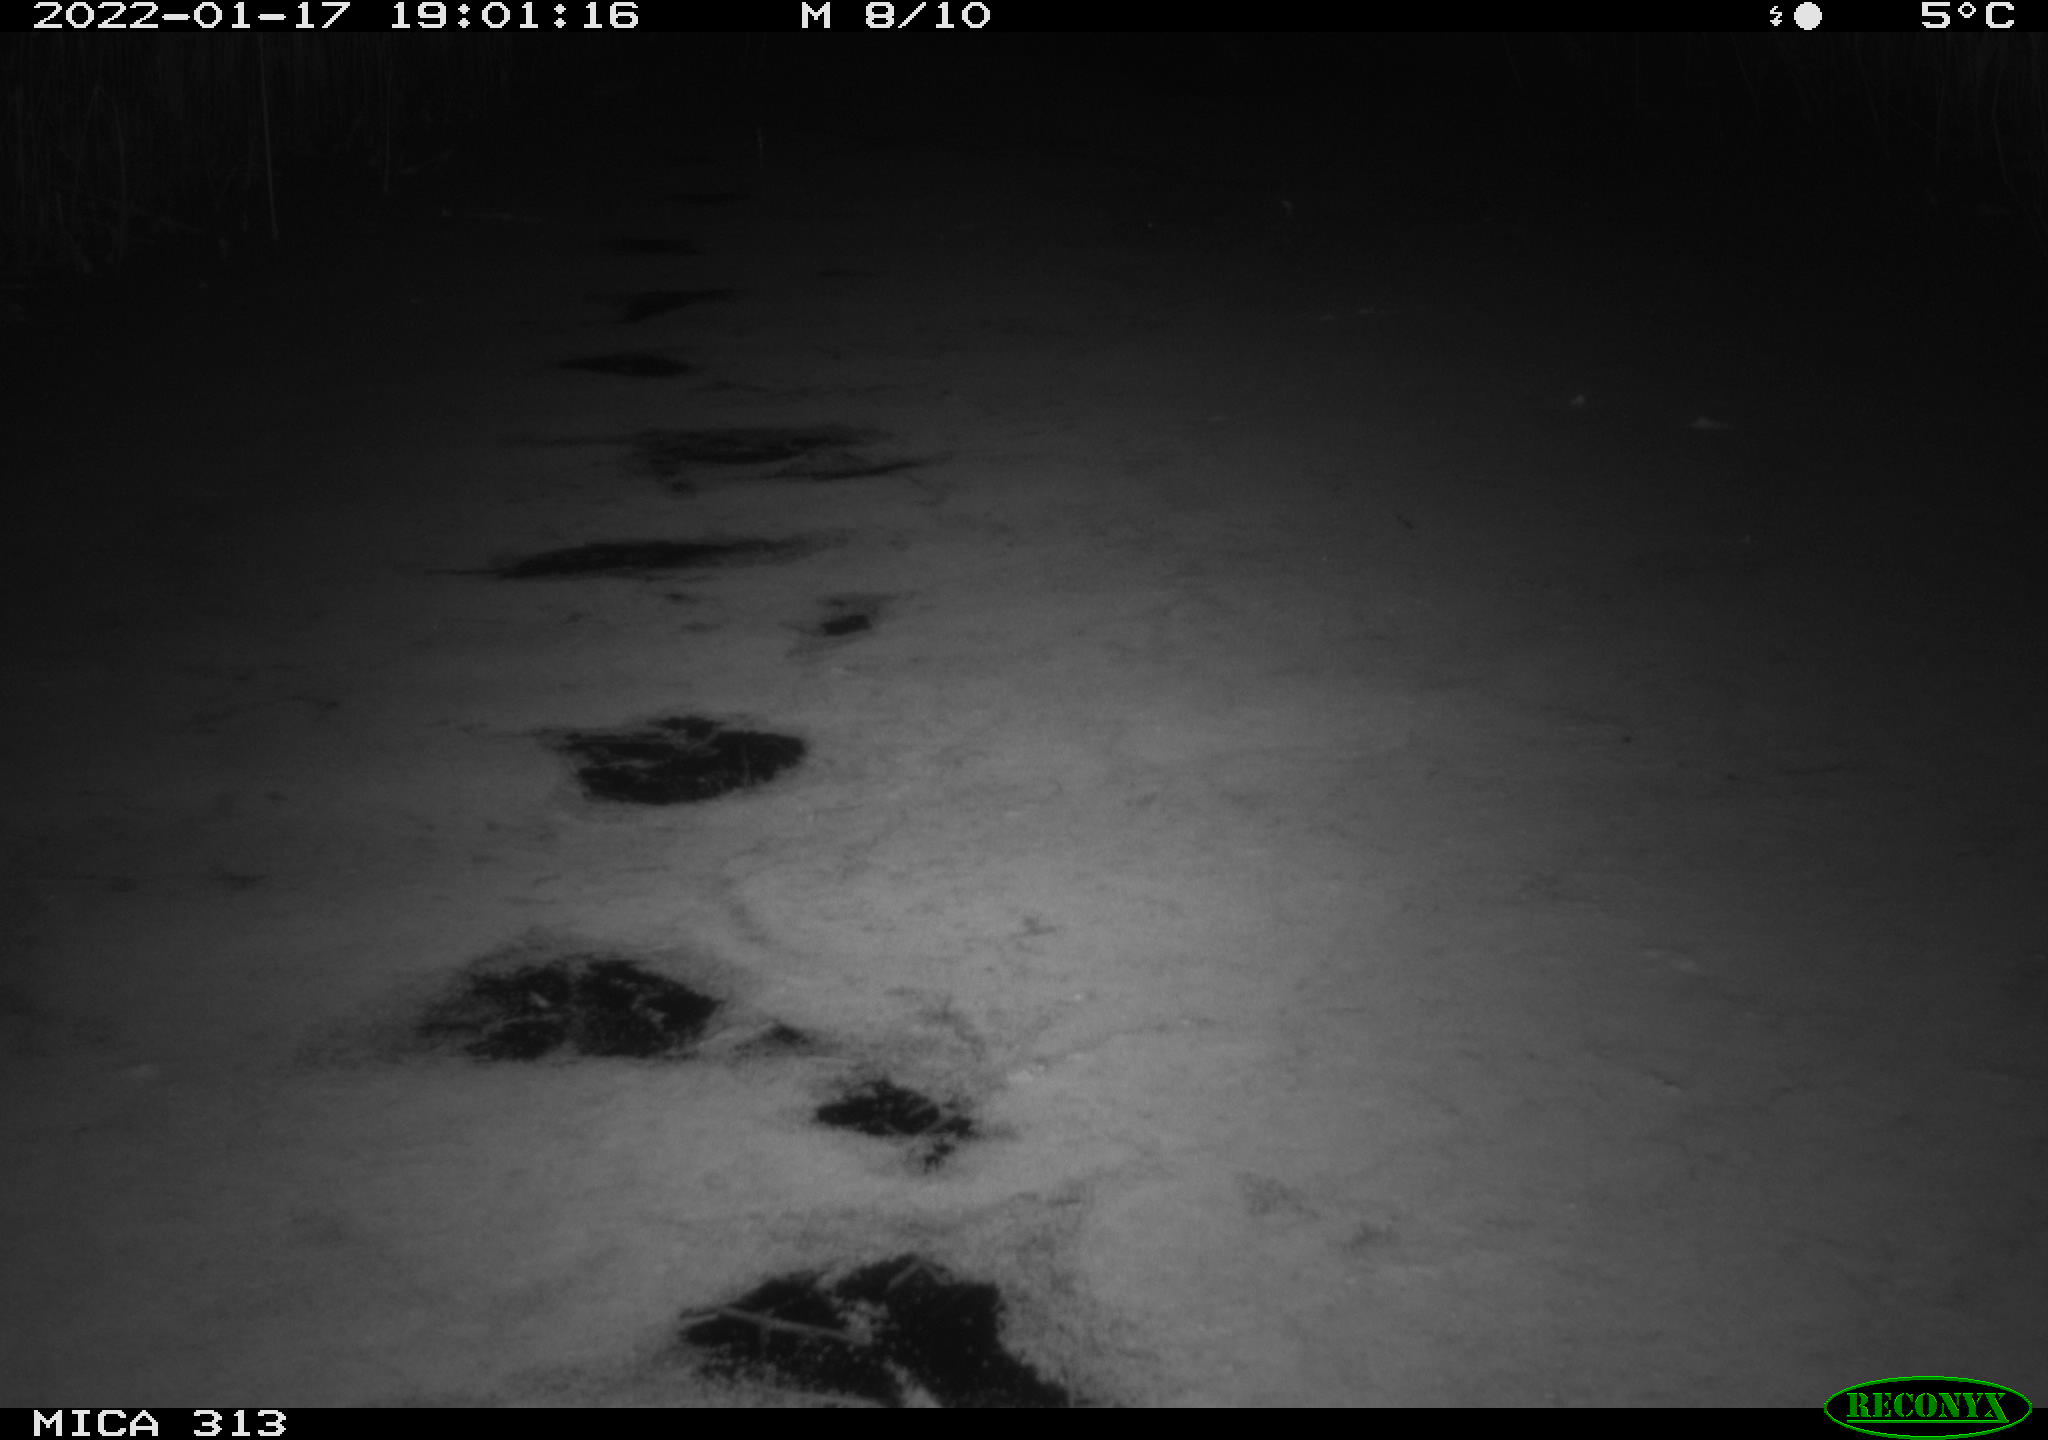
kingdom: Animalia
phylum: Chordata
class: Aves
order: Gruiformes
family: Rallidae
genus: Gallinula
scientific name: Gallinula chloropus
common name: Common moorhen
